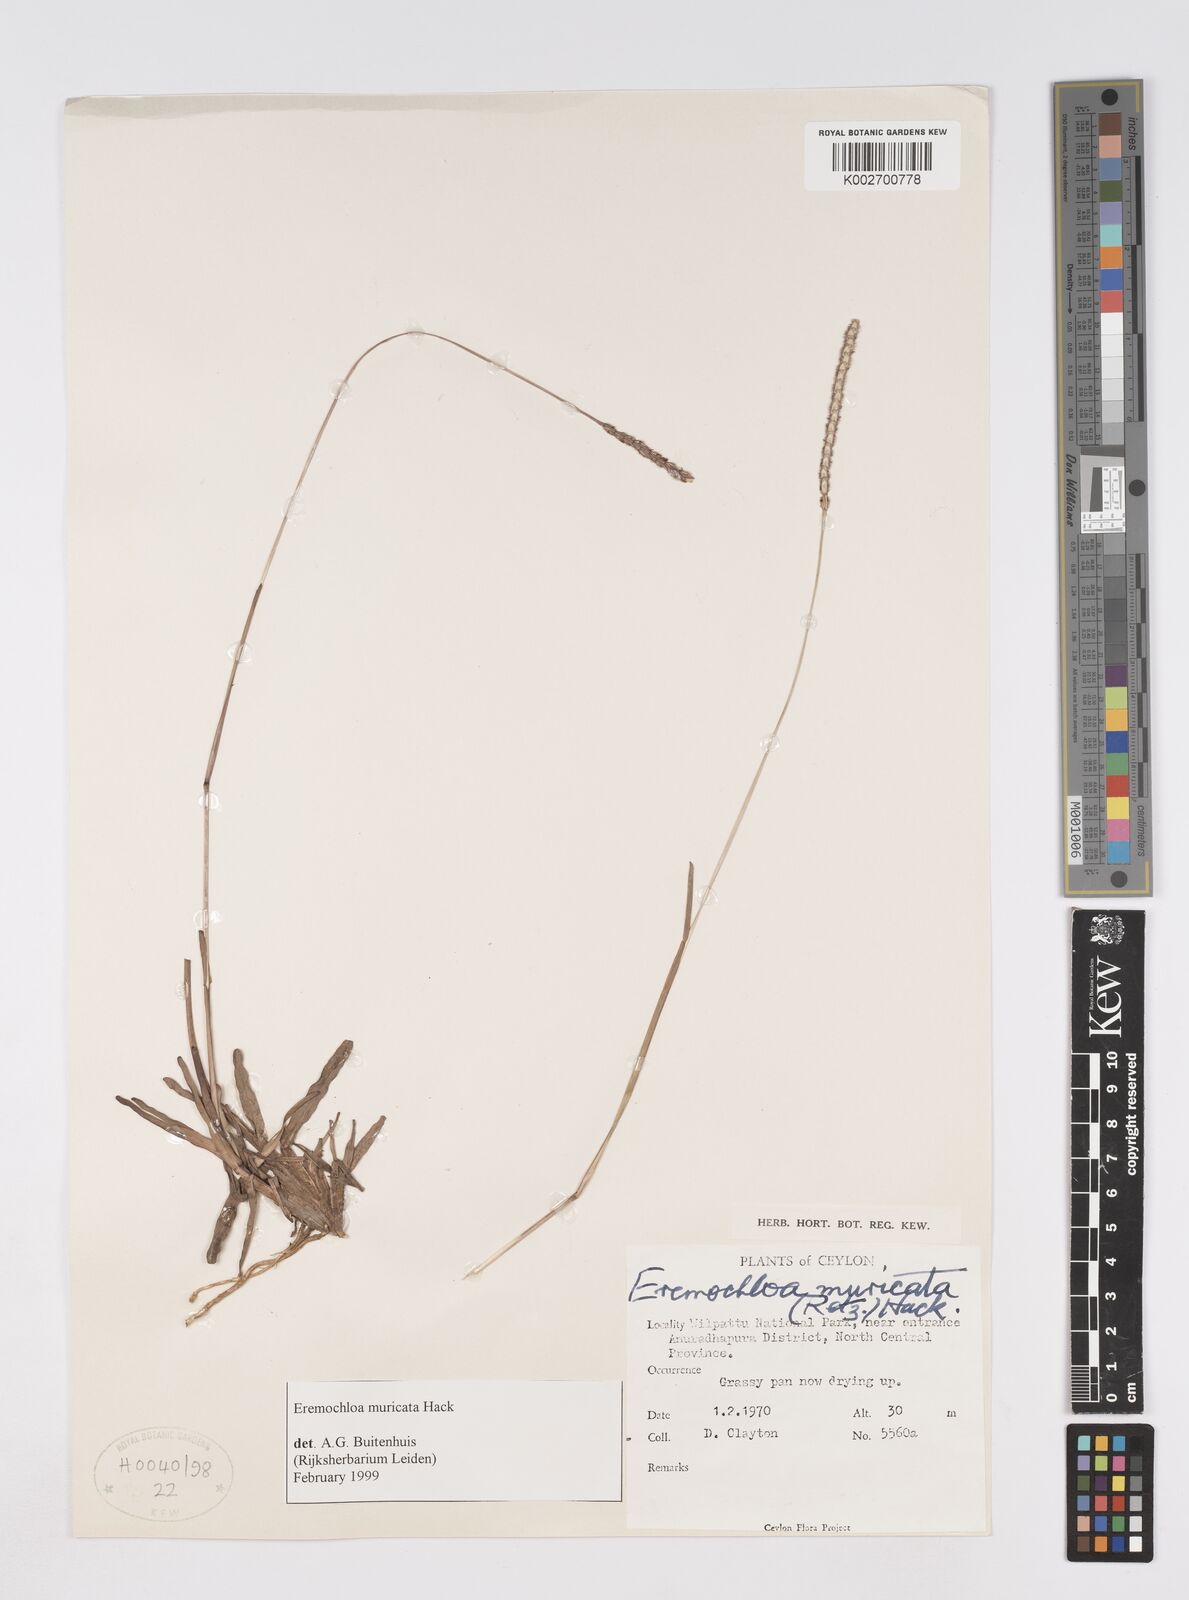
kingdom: Plantae
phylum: Tracheophyta
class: Liliopsida
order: Poales
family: Poaceae
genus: Eremochloa
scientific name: Eremochloa muricata
